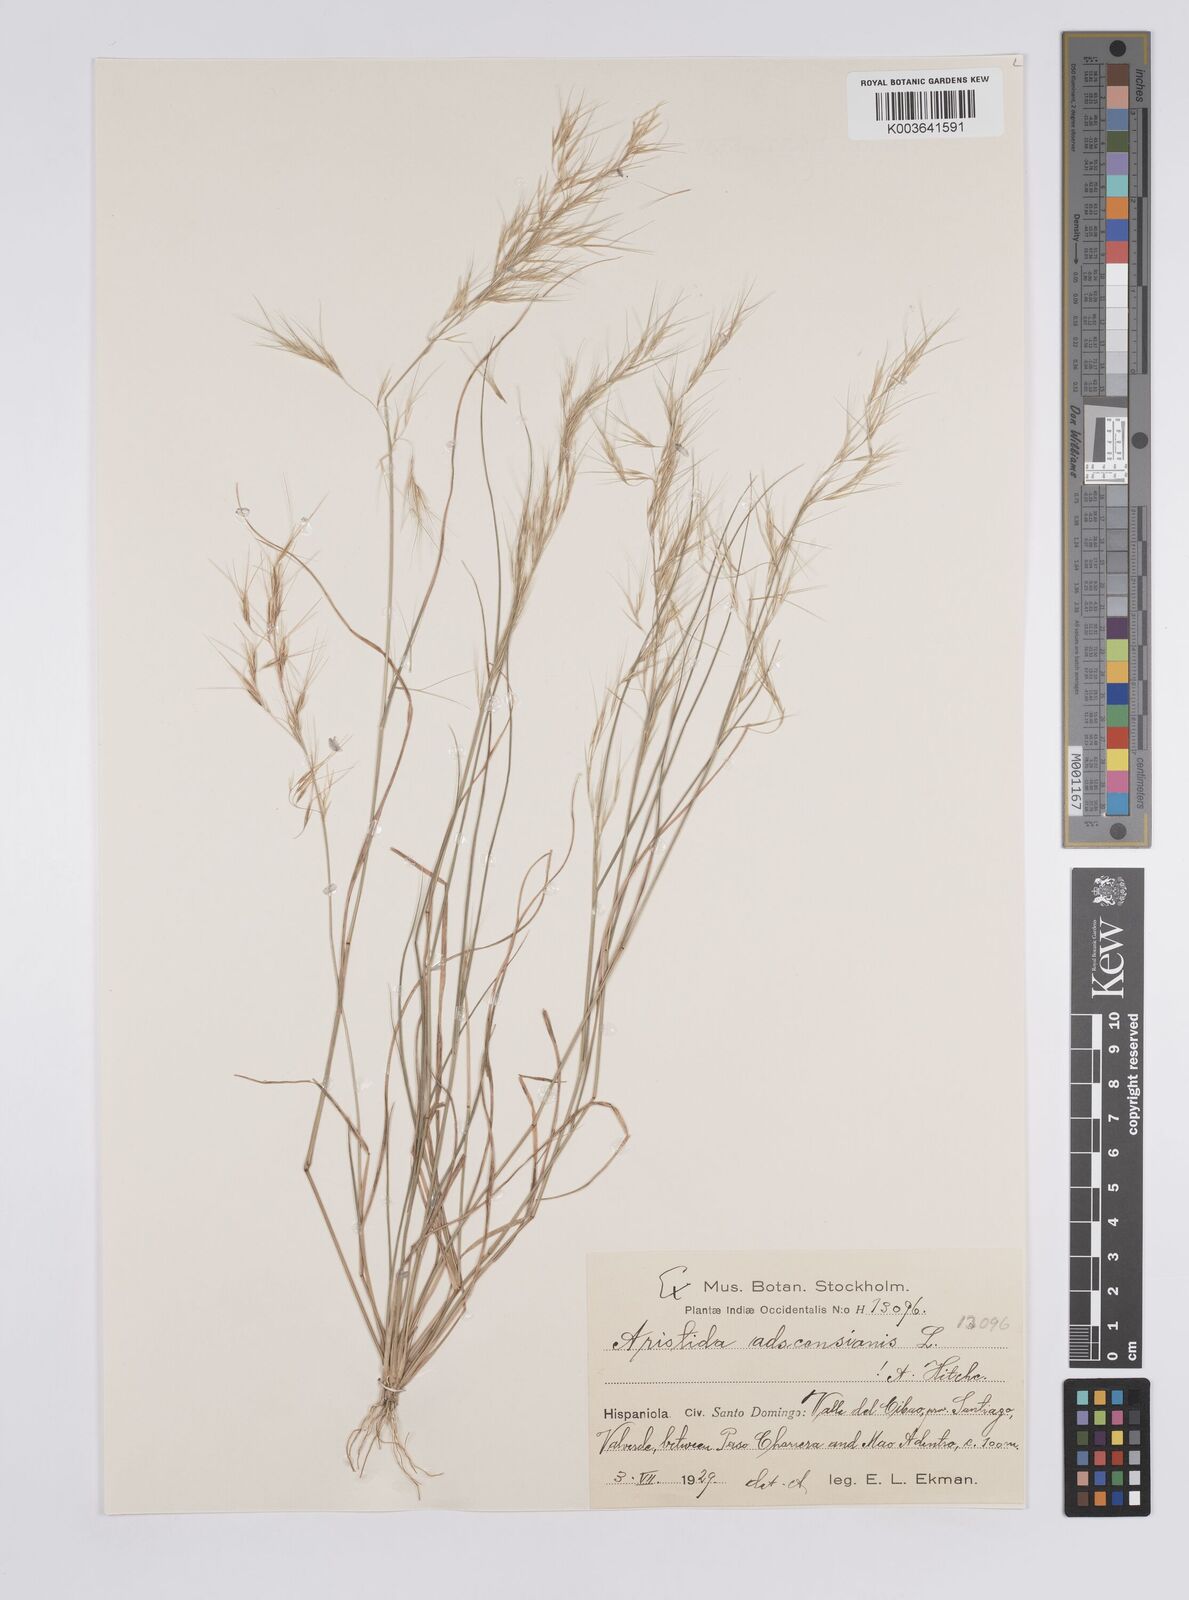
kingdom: Plantae
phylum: Tracheophyta
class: Liliopsida
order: Poales
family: Poaceae
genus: Aristida
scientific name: Aristida adscensionis
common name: Sixweeks threeawn
